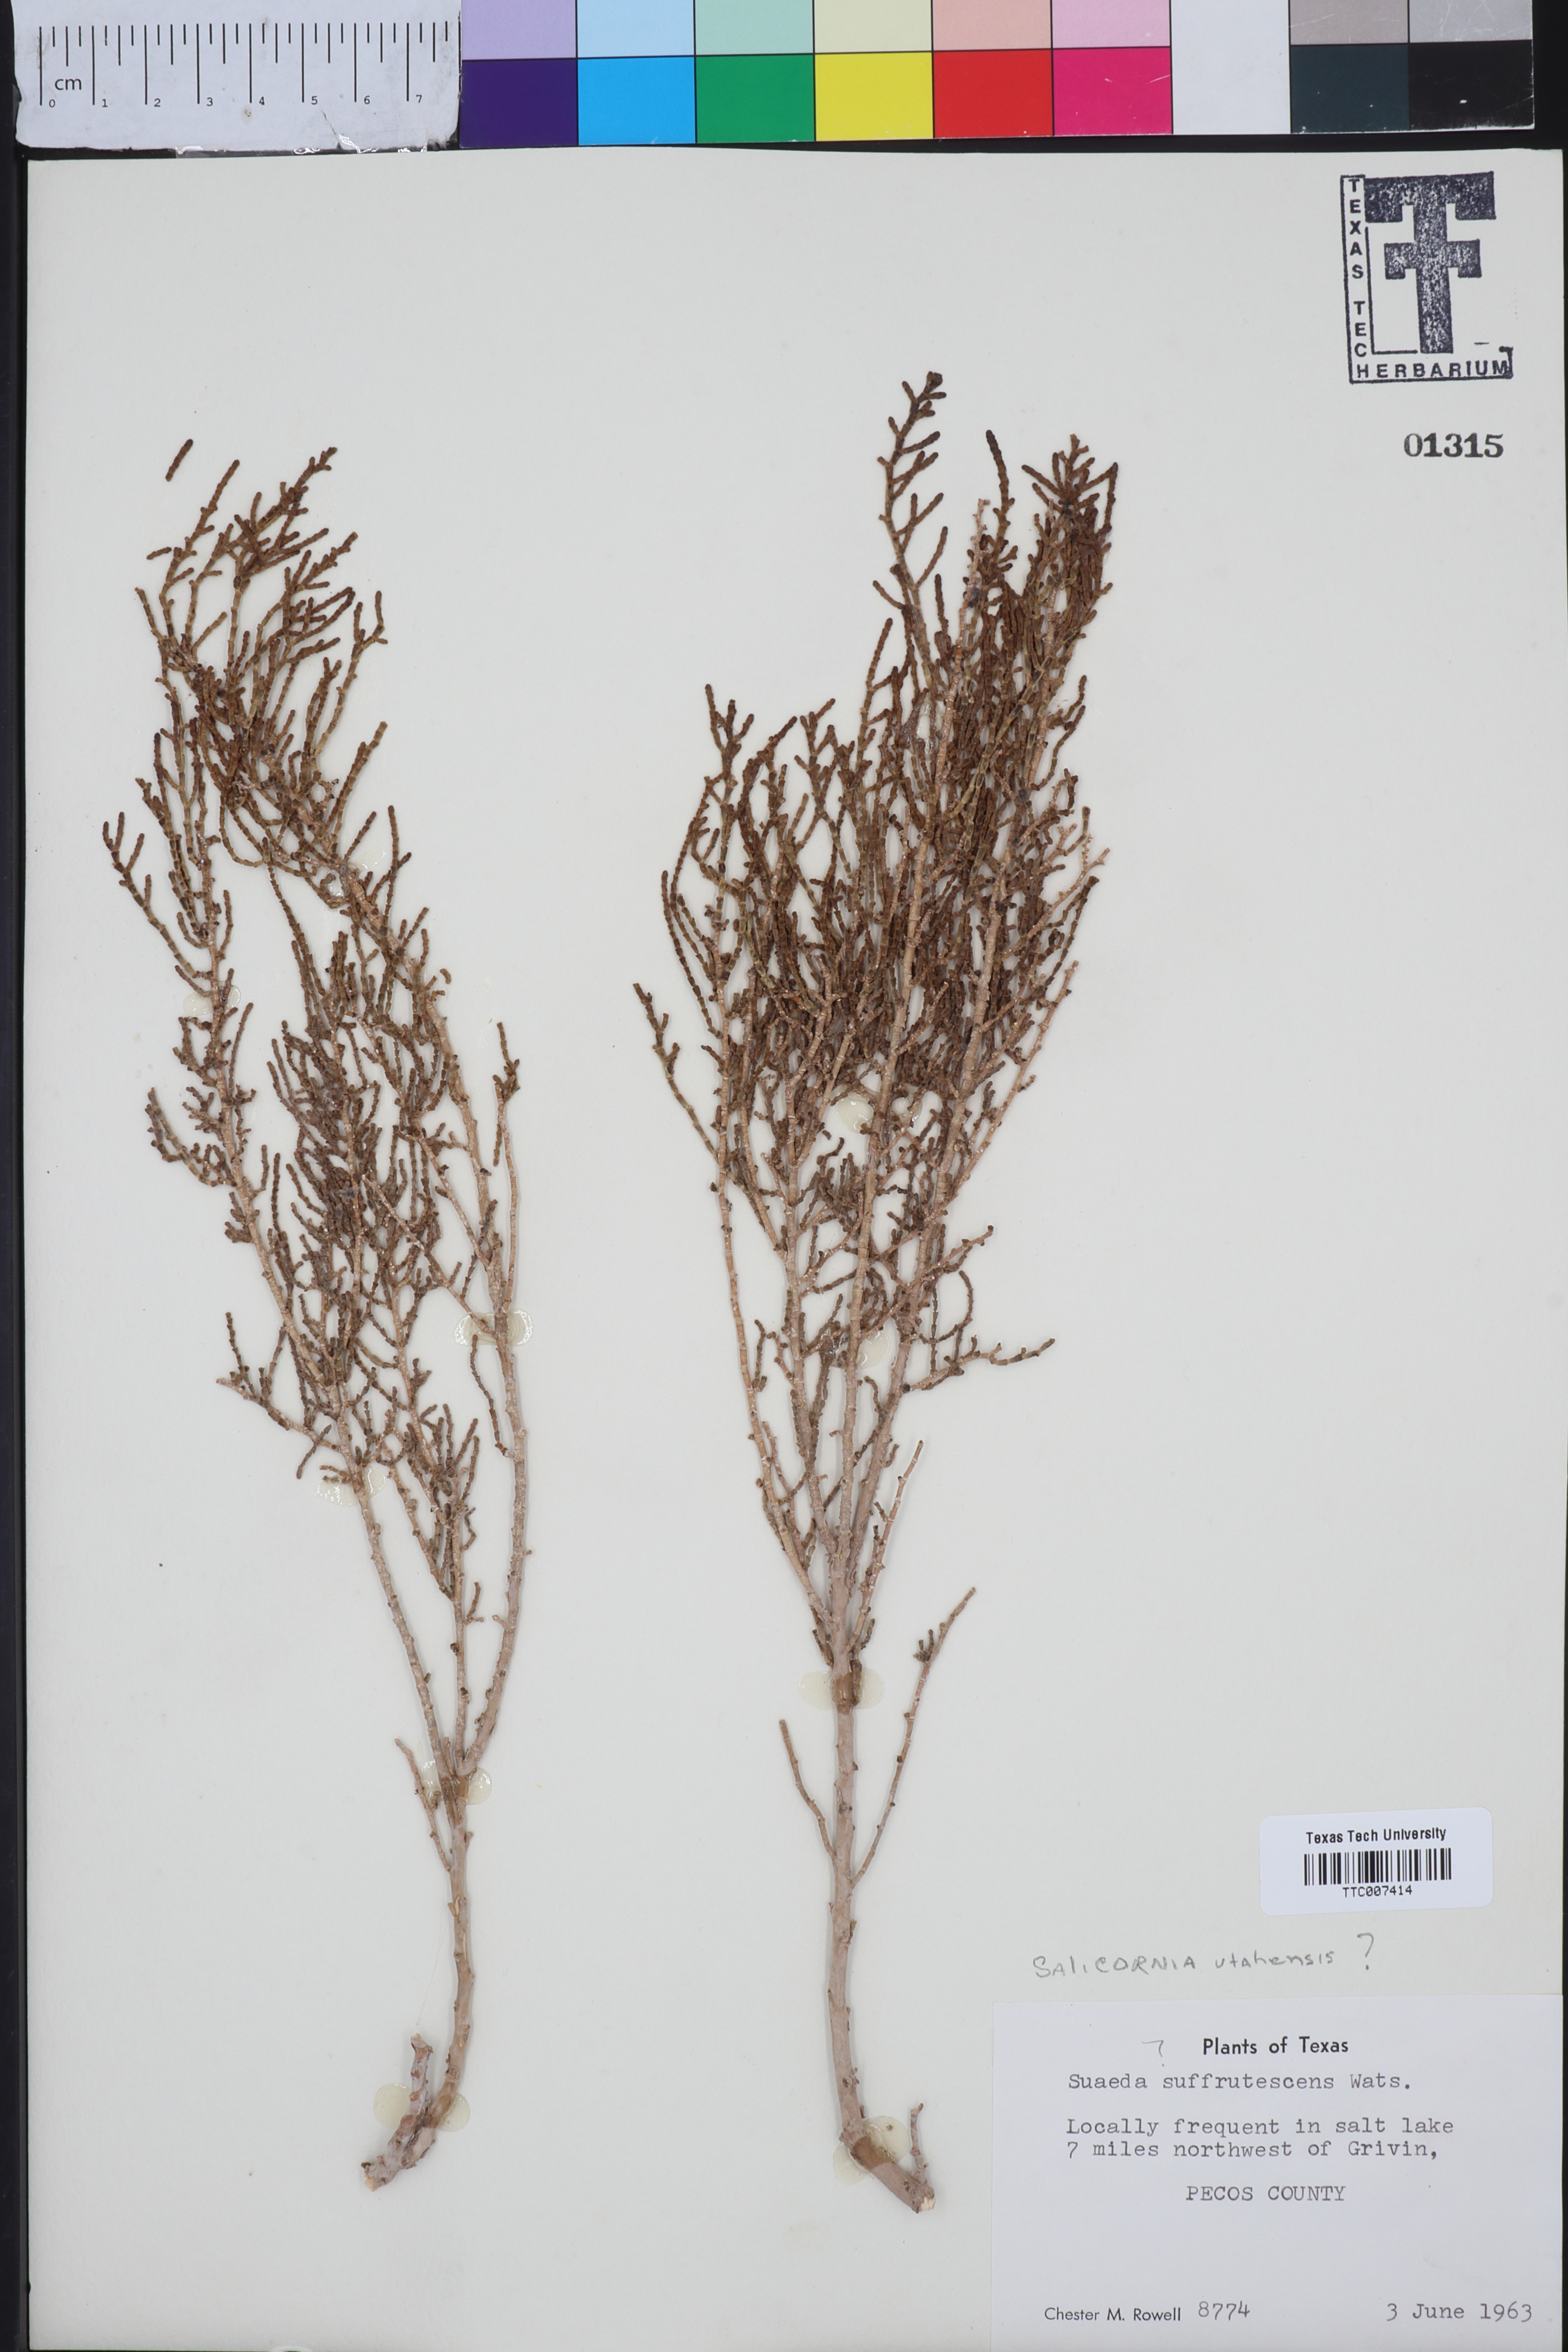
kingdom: Plantae
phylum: Tracheophyta
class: Magnoliopsida
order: Caryophyllales
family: Amaranthaceae
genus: Salicornia
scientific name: Salicornia utahensis
